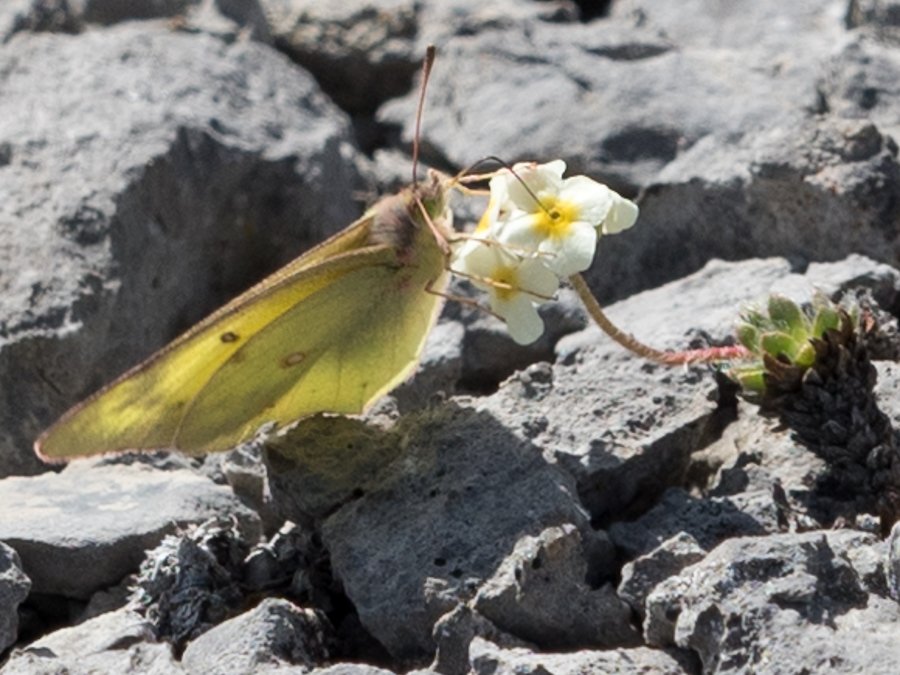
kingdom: Animalia
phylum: Arthropoda
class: Insecta
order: Lepidoptera
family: Pieridae
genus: Colias
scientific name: Colias philodice
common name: Clouded Sulphur
